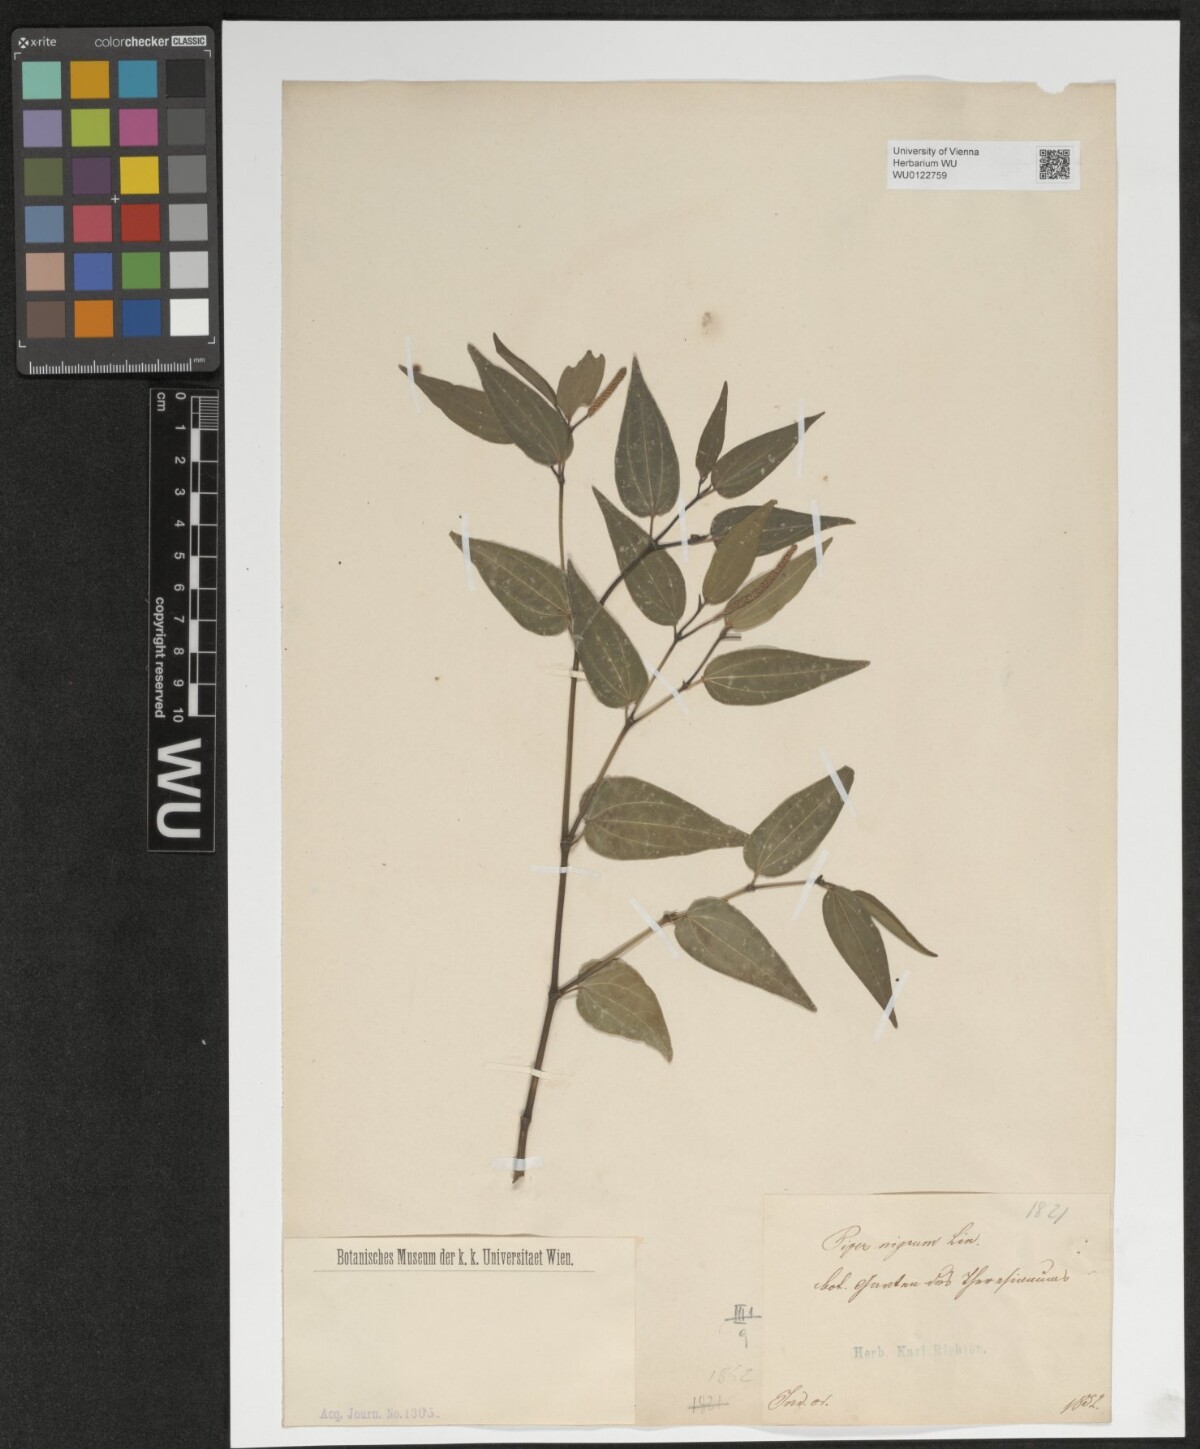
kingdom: Plantae
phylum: Tracheophyta
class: Magnoliopsida
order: Piperales
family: Piperaceae
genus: Piper
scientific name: Piper unguiculatum
